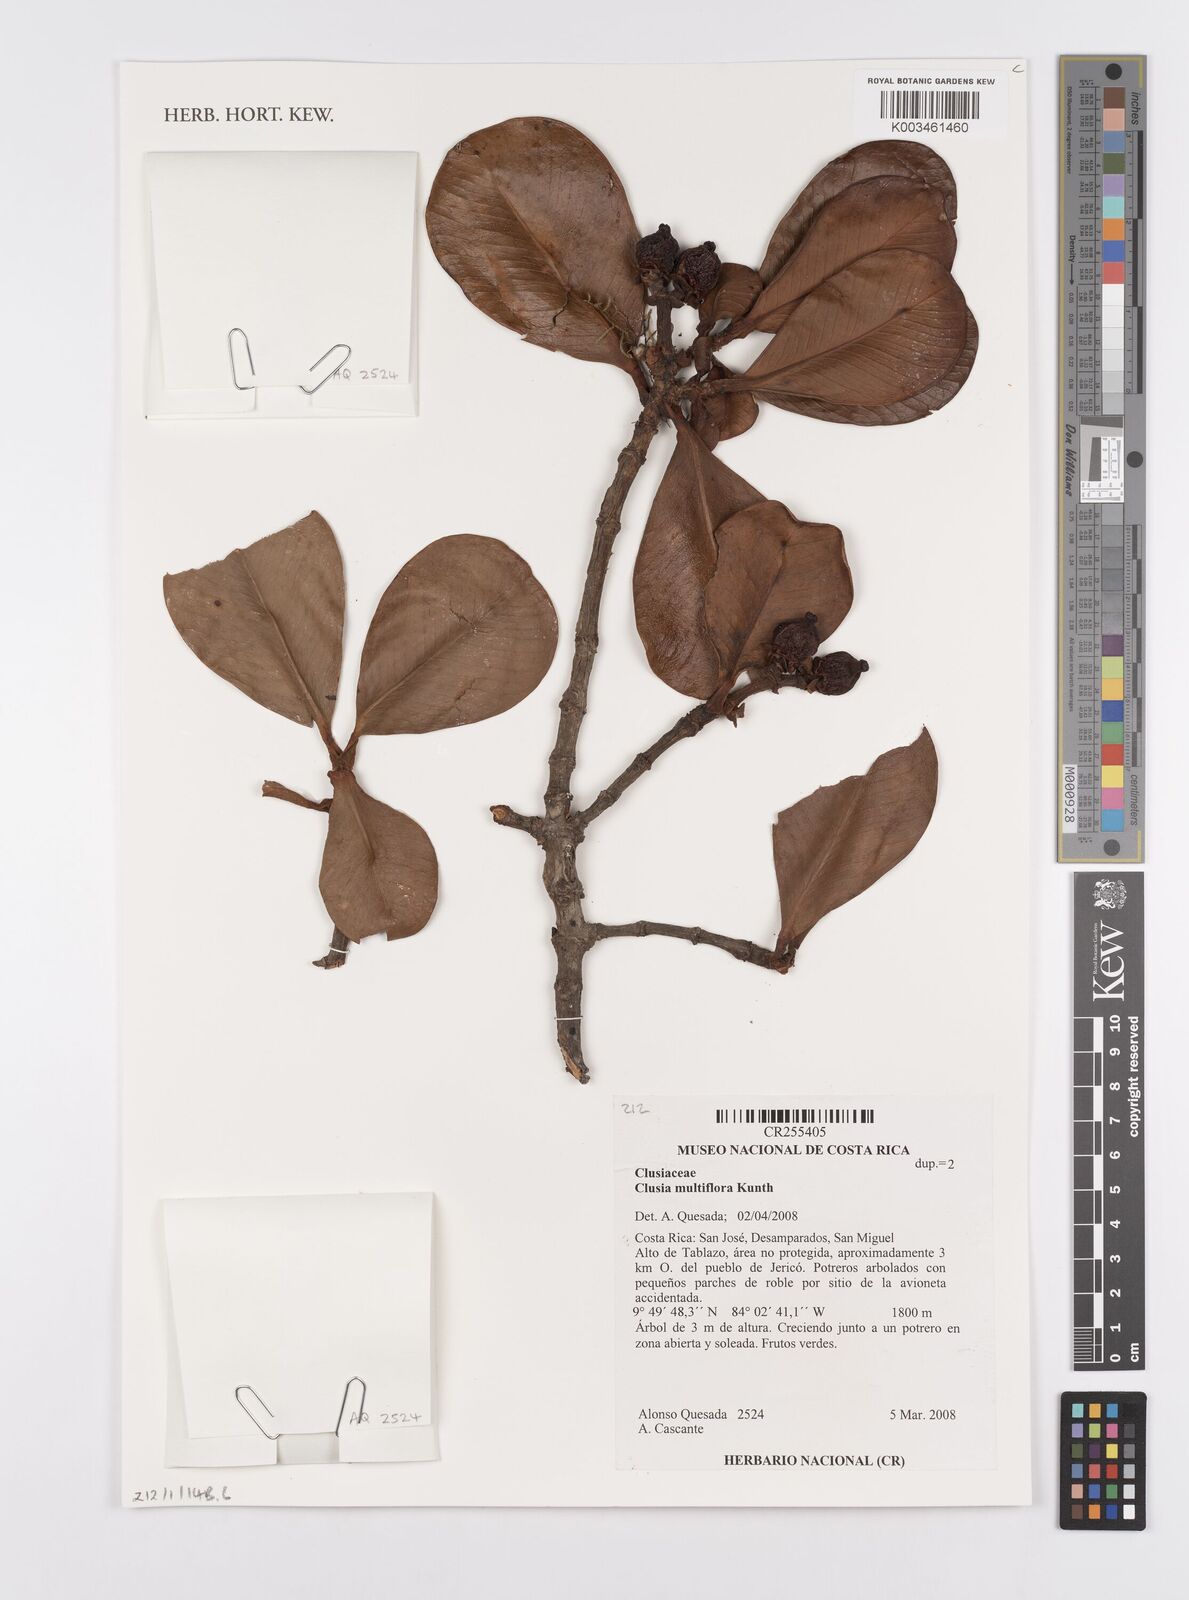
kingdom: Plantae
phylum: Tracheophyta
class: Magnoliopsida
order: Malpighiales
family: Clusiaceae
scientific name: Clusiaceae
